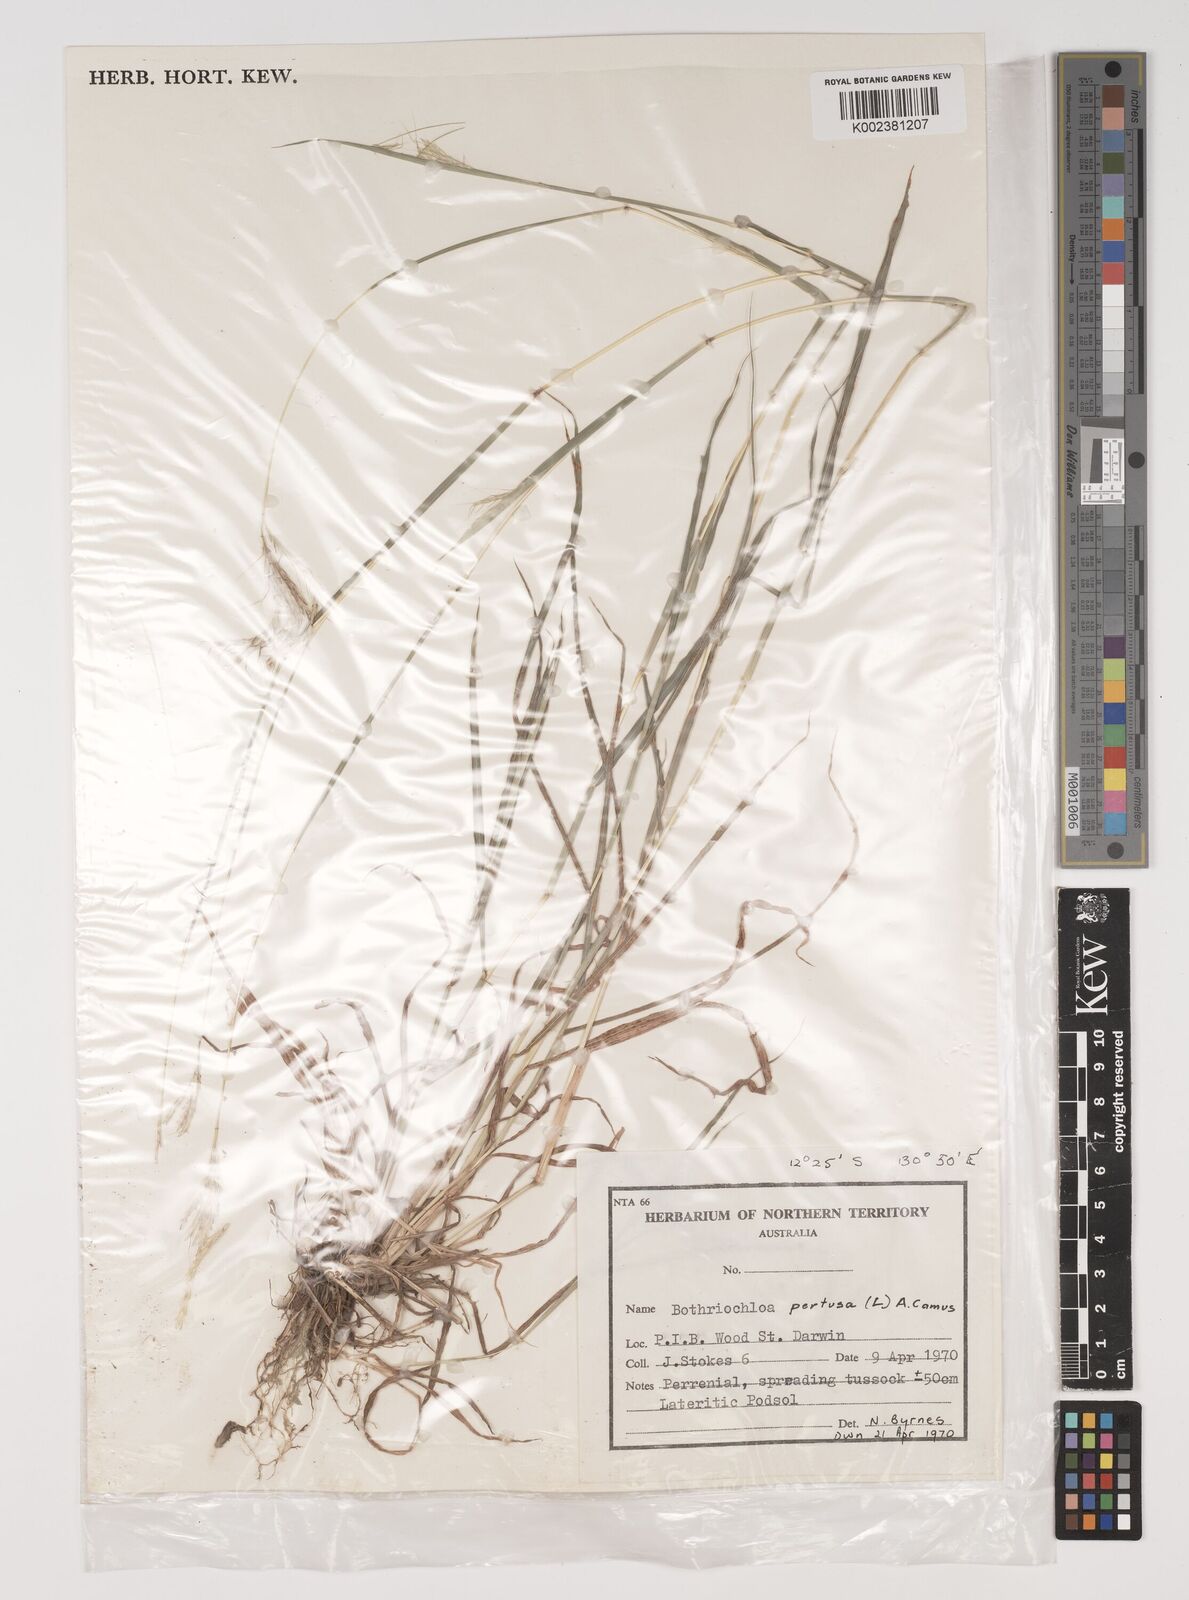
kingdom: Plantae
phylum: Tracheophyta
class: Liliopsida
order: Poales
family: Poaceae
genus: Bothriochloa
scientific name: Bothriochloa pertusa
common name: Pitted beardgrass
